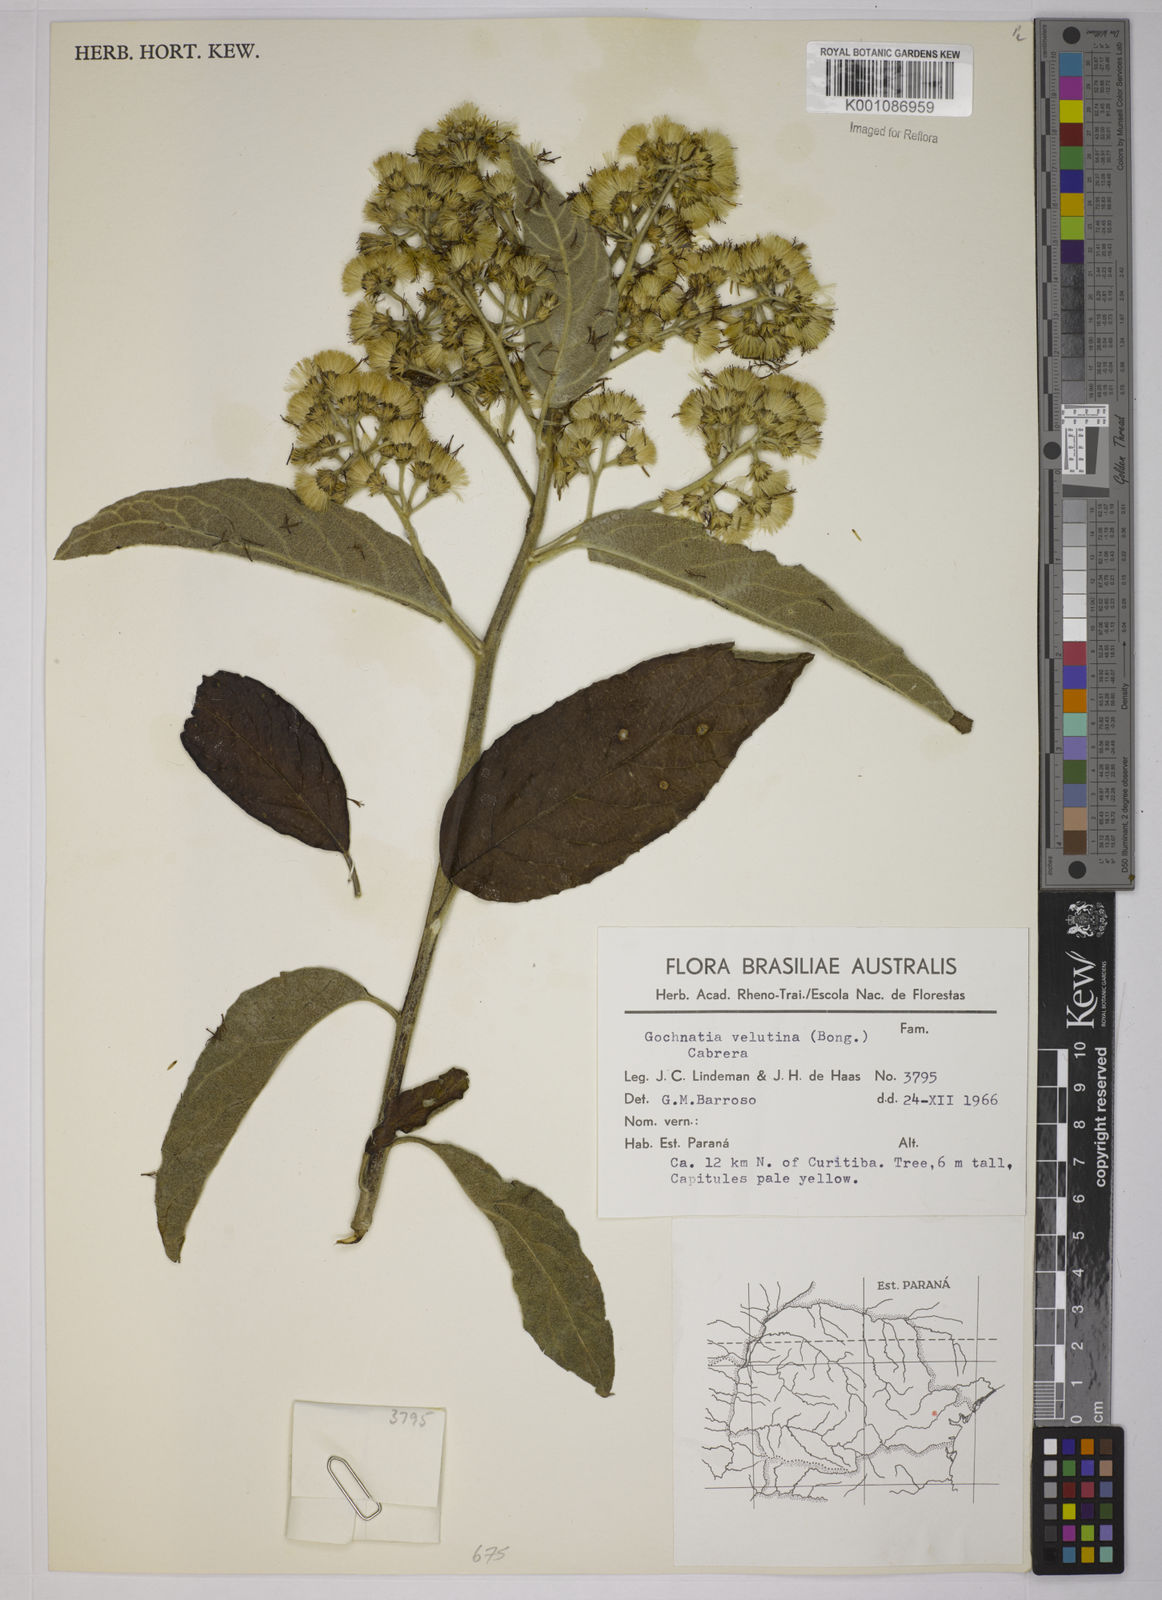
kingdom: Plantae
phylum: Tracheophyta
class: Magnoliopsida
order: Asterales
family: Asteraceae
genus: Moquiniastrum
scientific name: Moquiniastrum polymorphum
